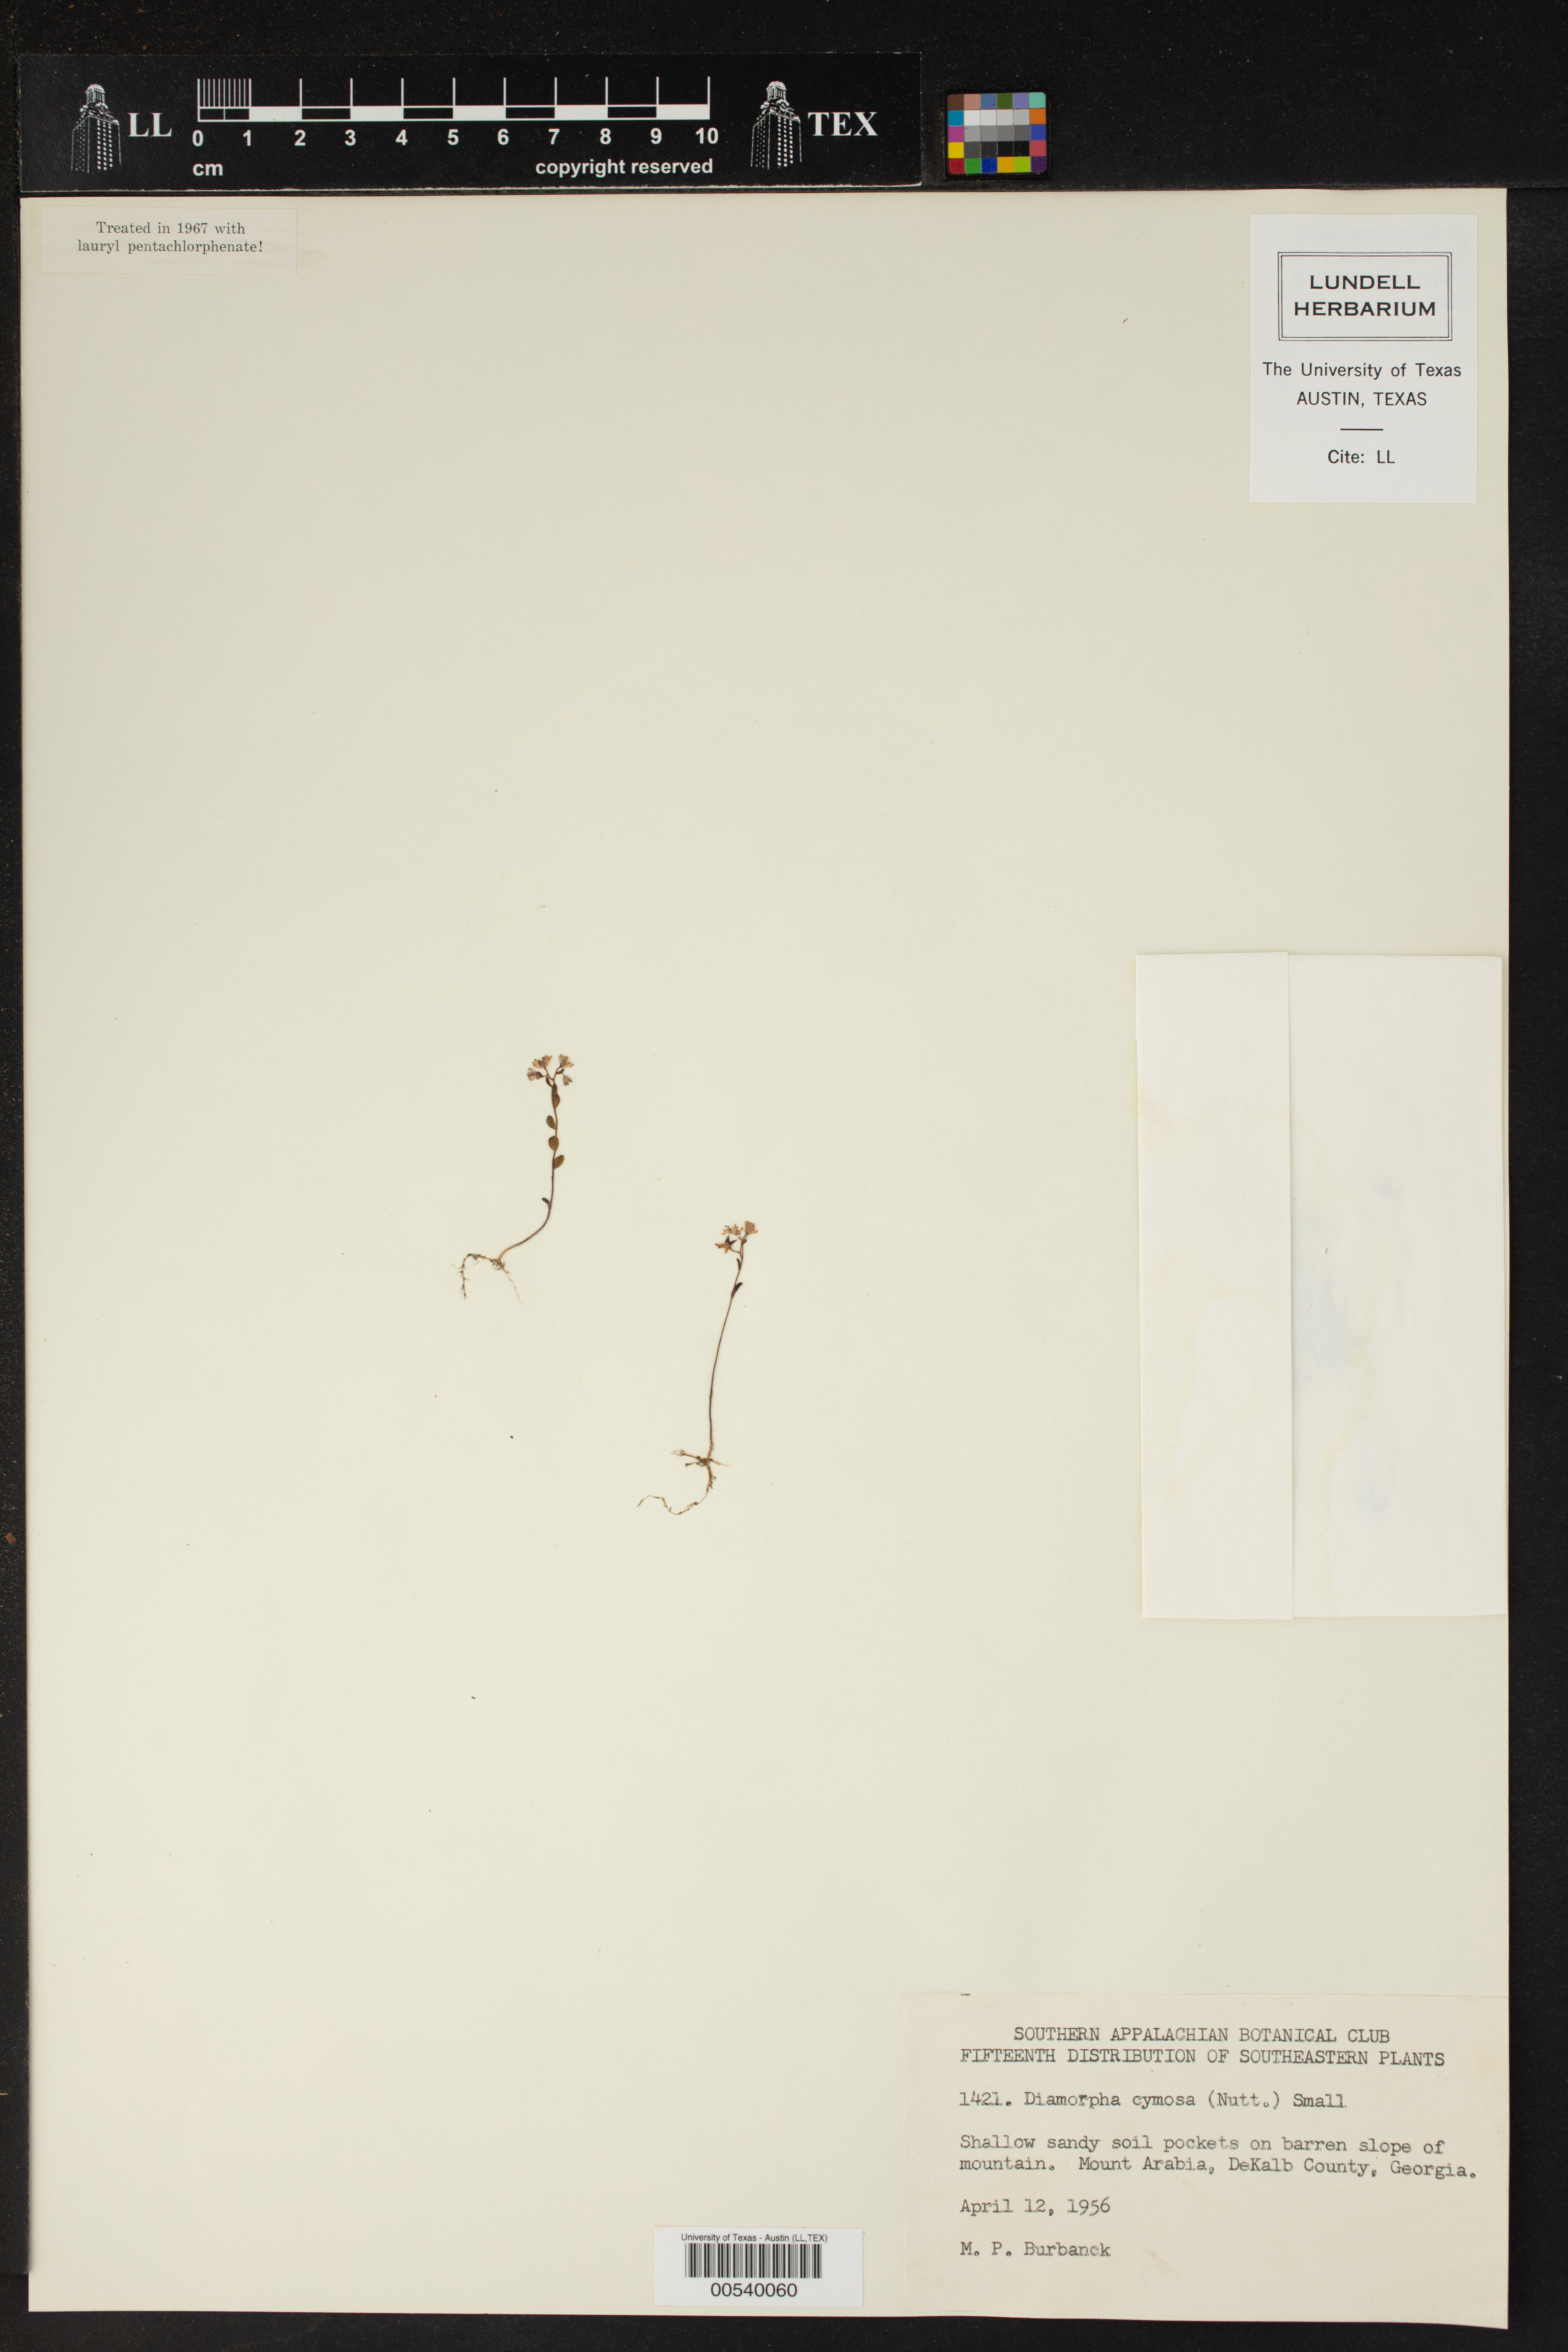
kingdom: Plantae
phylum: Tracheophyta
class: Magnoliopsida
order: Saxifragales
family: Crassulaceae
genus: Sedum
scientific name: Sedum smallii
